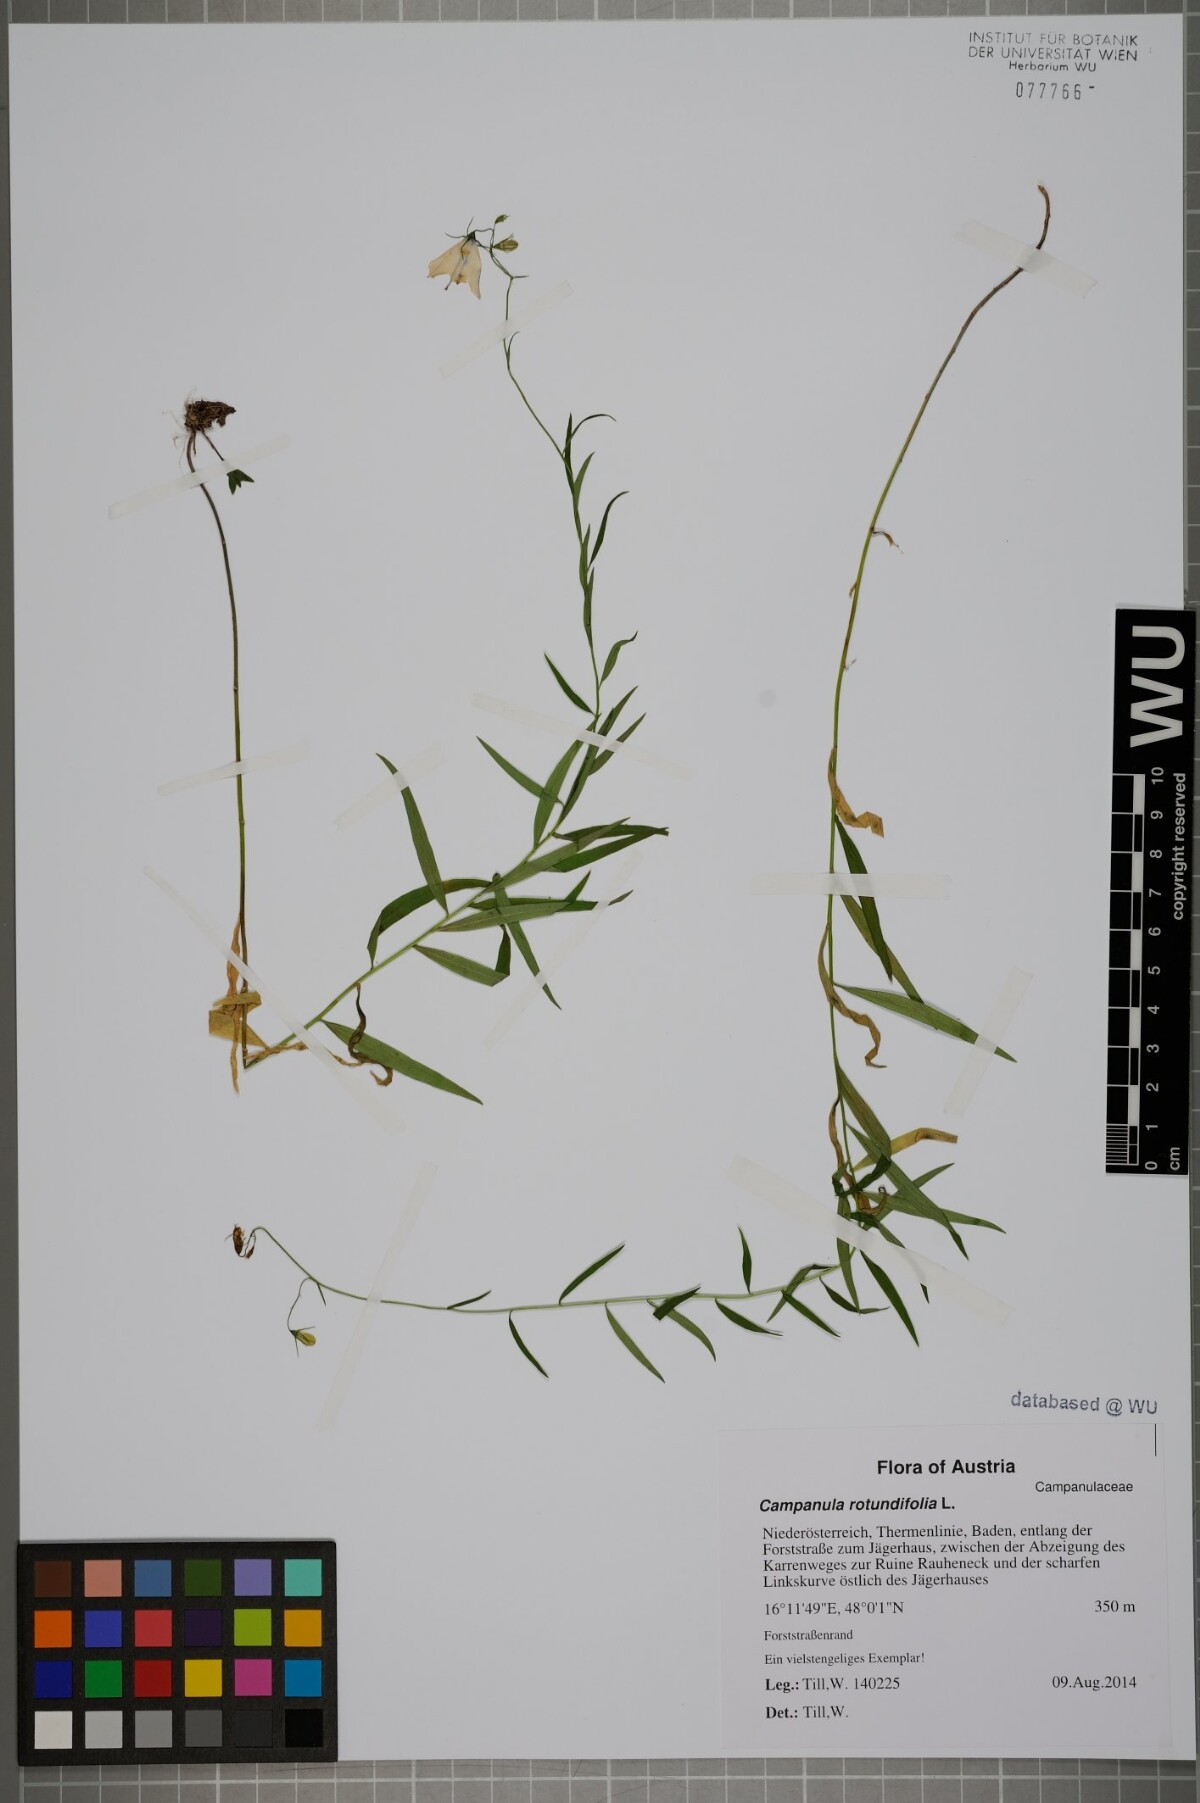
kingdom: Plantae
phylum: Tracheophyta
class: Magnoliopsida
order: Asterales
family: Campanulaceae
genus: Campanula
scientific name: Campanula rotundifolia
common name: Harebell
